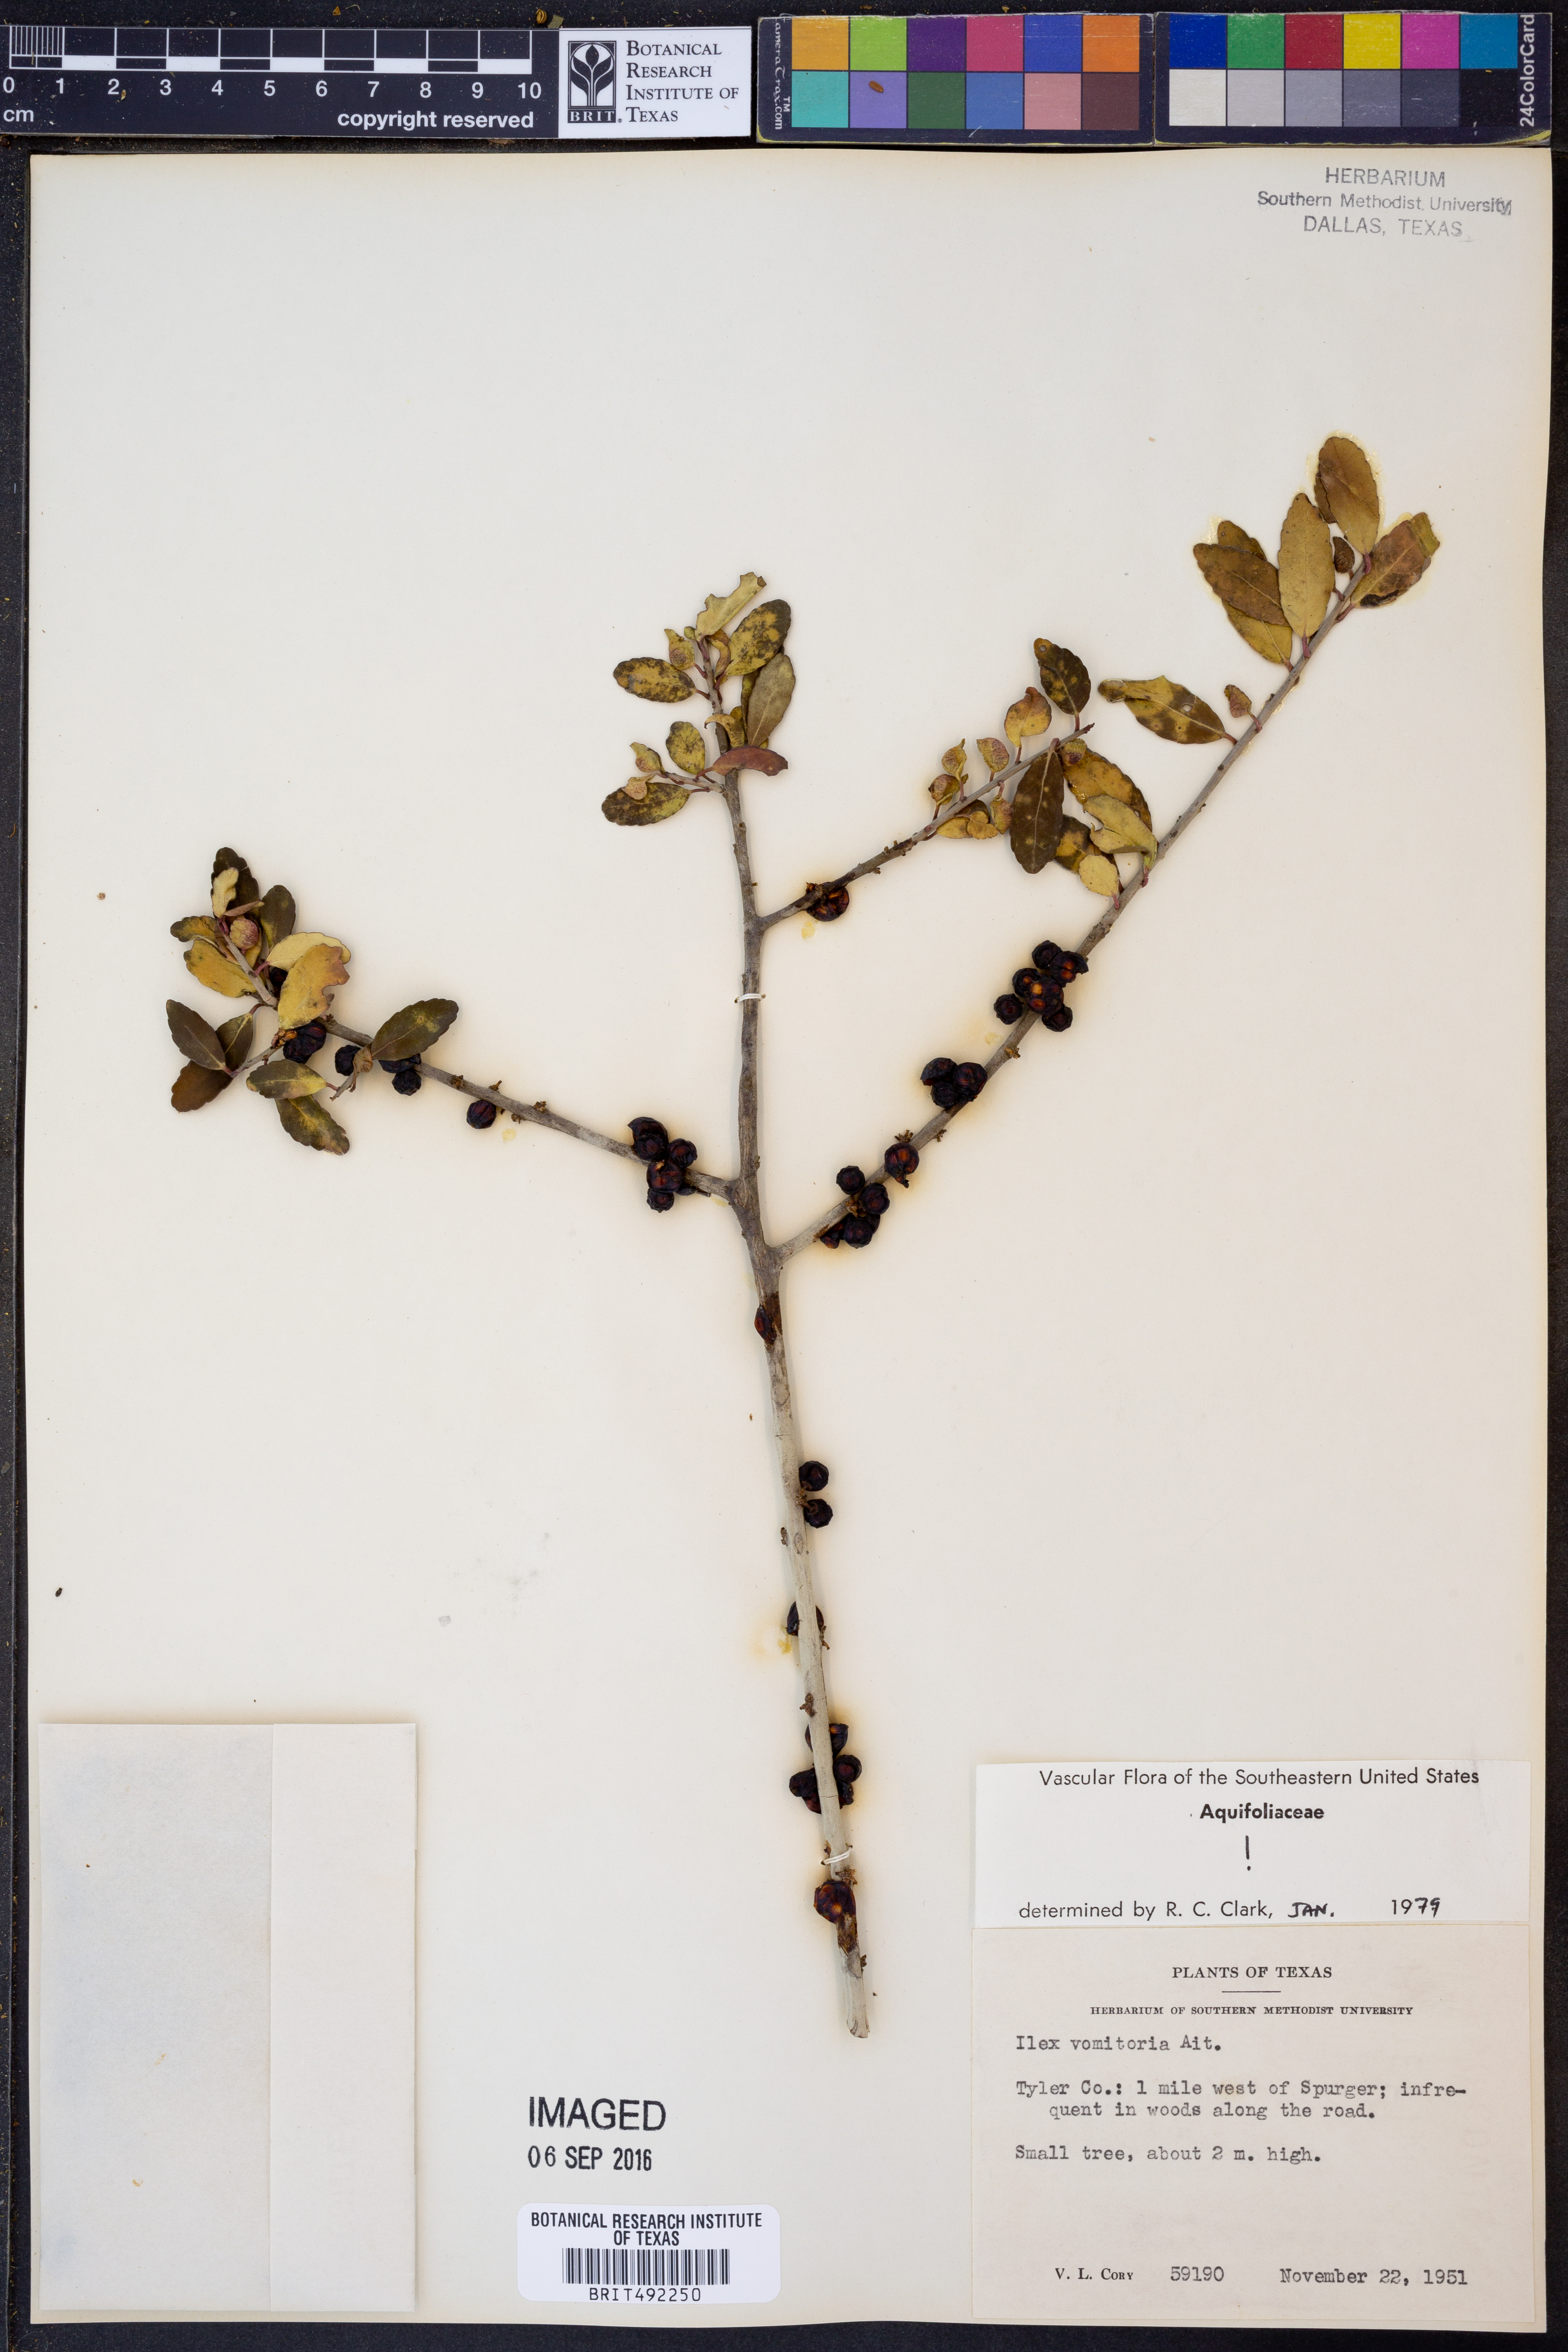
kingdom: Plantae
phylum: Tracheophyta
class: Magnoliopsida
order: Aquifoliales
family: Aquifoliaceae
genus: Ilex
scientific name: Ilex vomitoria
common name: Yaupon holly
